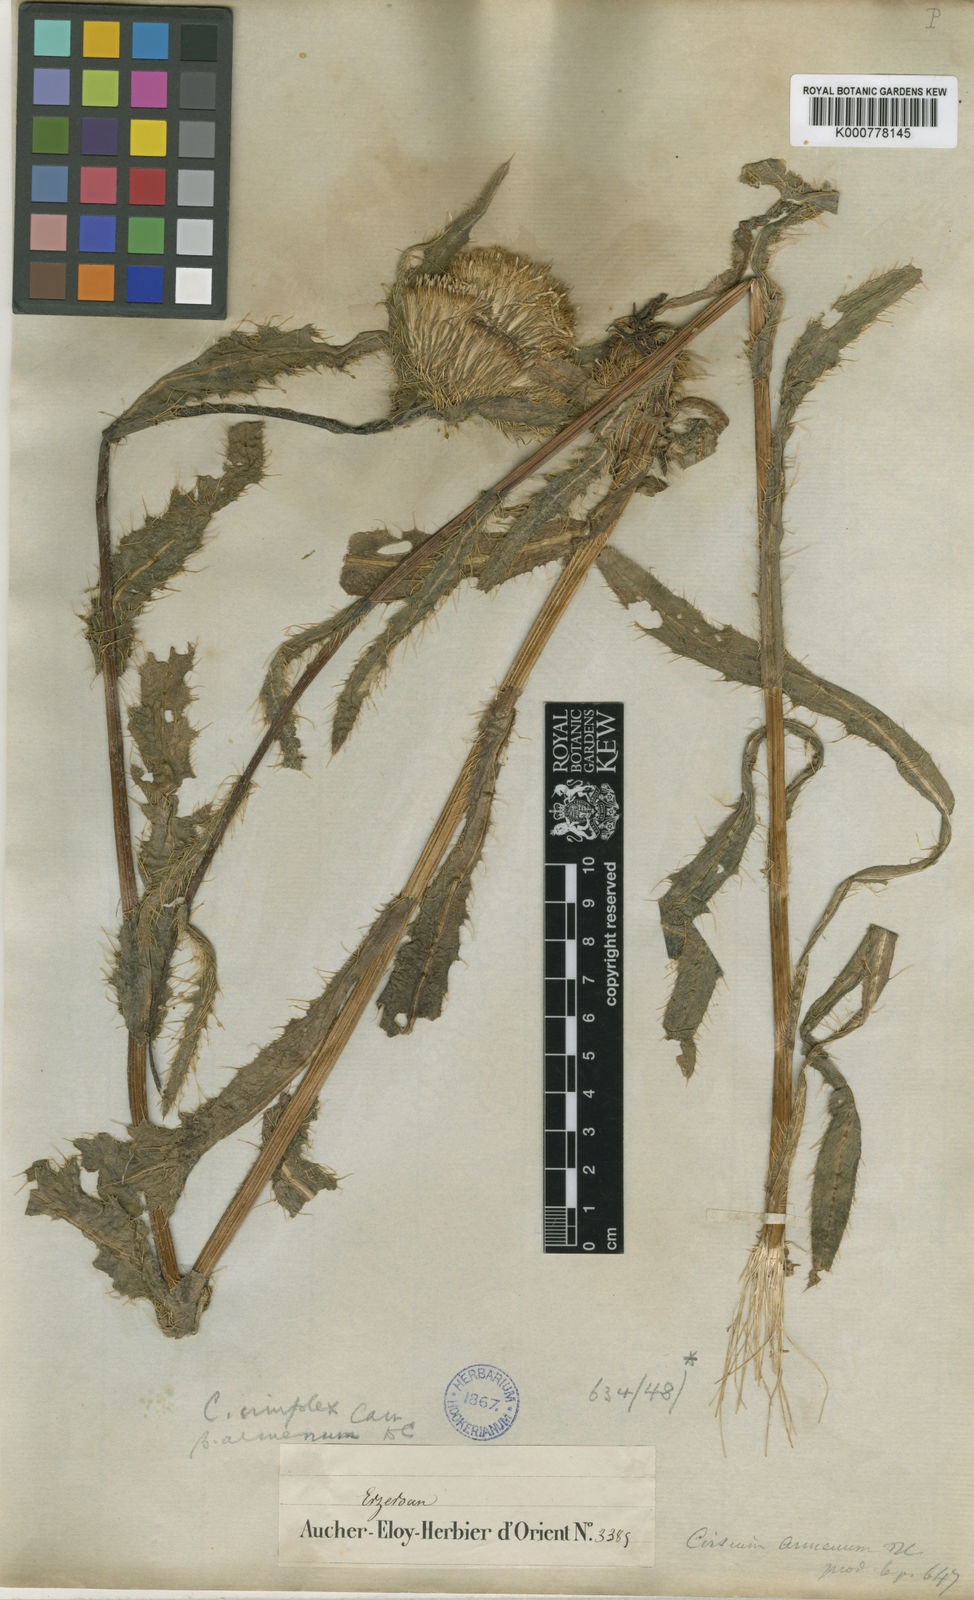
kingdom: Plantae
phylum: Tracheophyta
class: Magnoliopsida
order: Asterales
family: Asteraceae
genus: Cirsium
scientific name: Cirsium simplex
